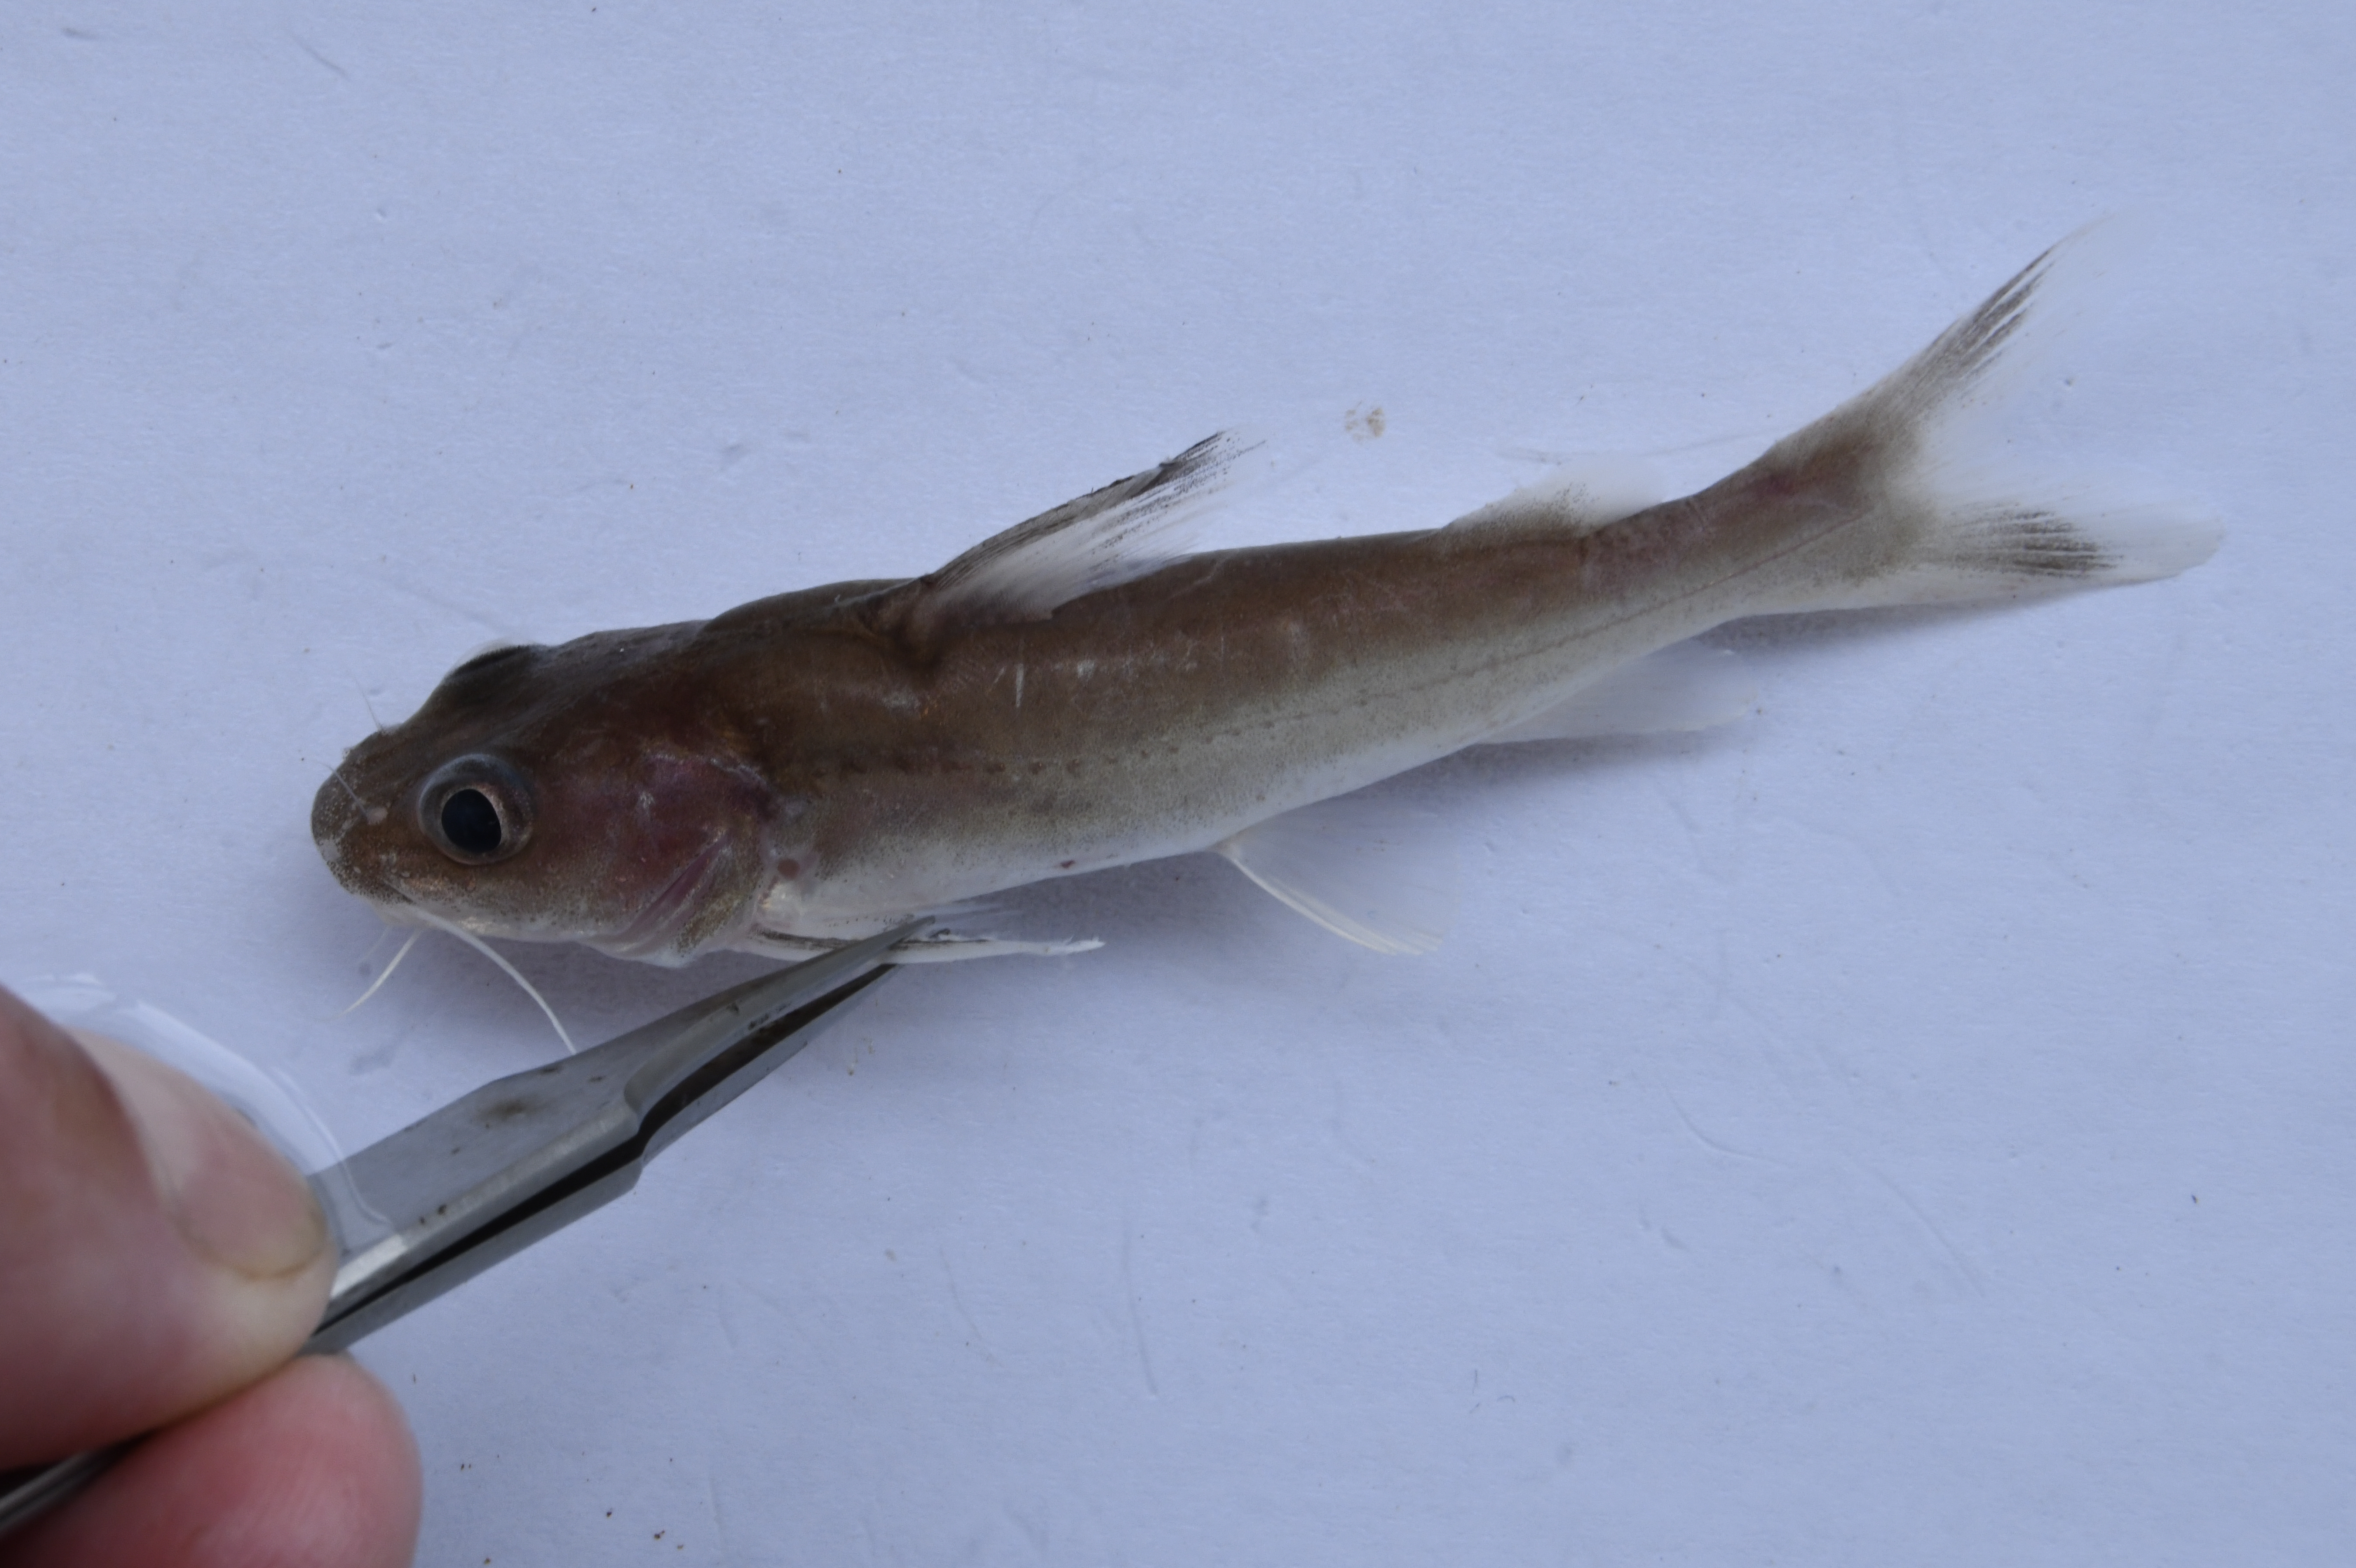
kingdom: Animalia
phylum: Chordata
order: Siluriformes
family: Claroteidae
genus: Chrysichthys
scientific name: Chrysichthys
